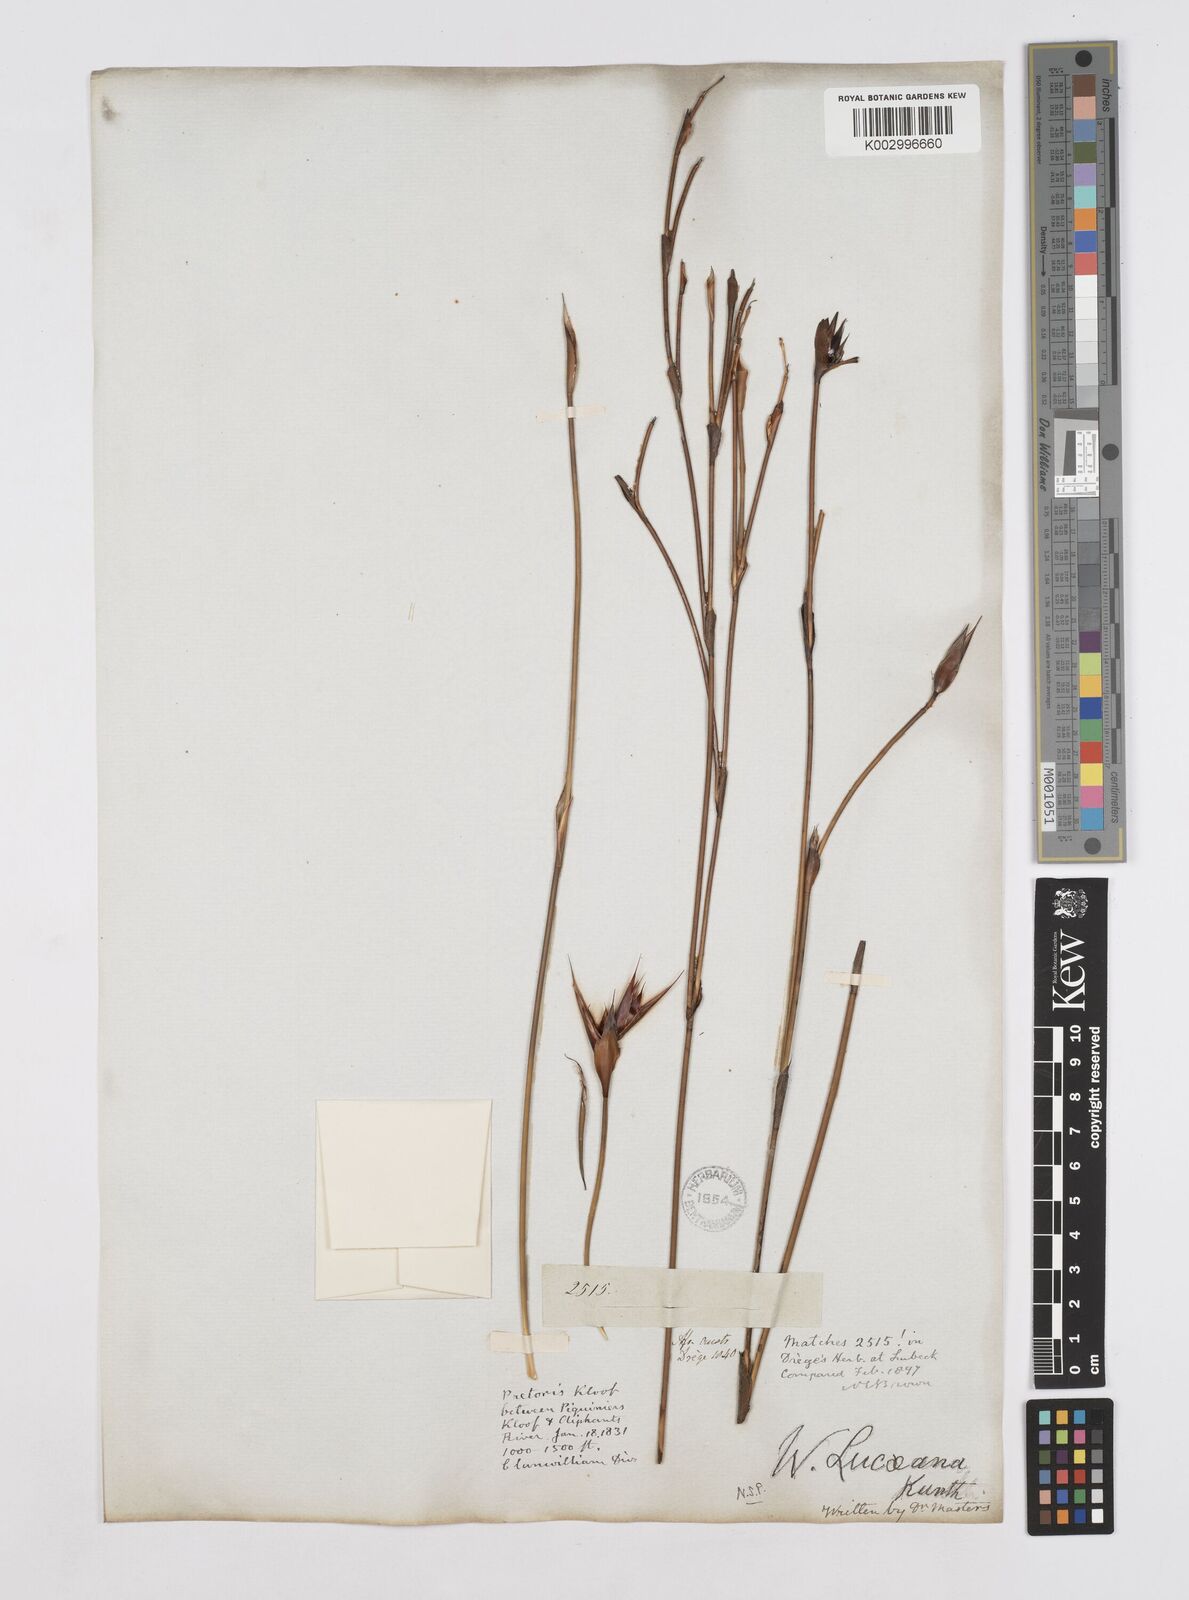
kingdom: Plantae
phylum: Tracheophyta
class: Liliopsida
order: Poales
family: Restionaceae
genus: Willdenowia
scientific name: Willdenowia glomerata
